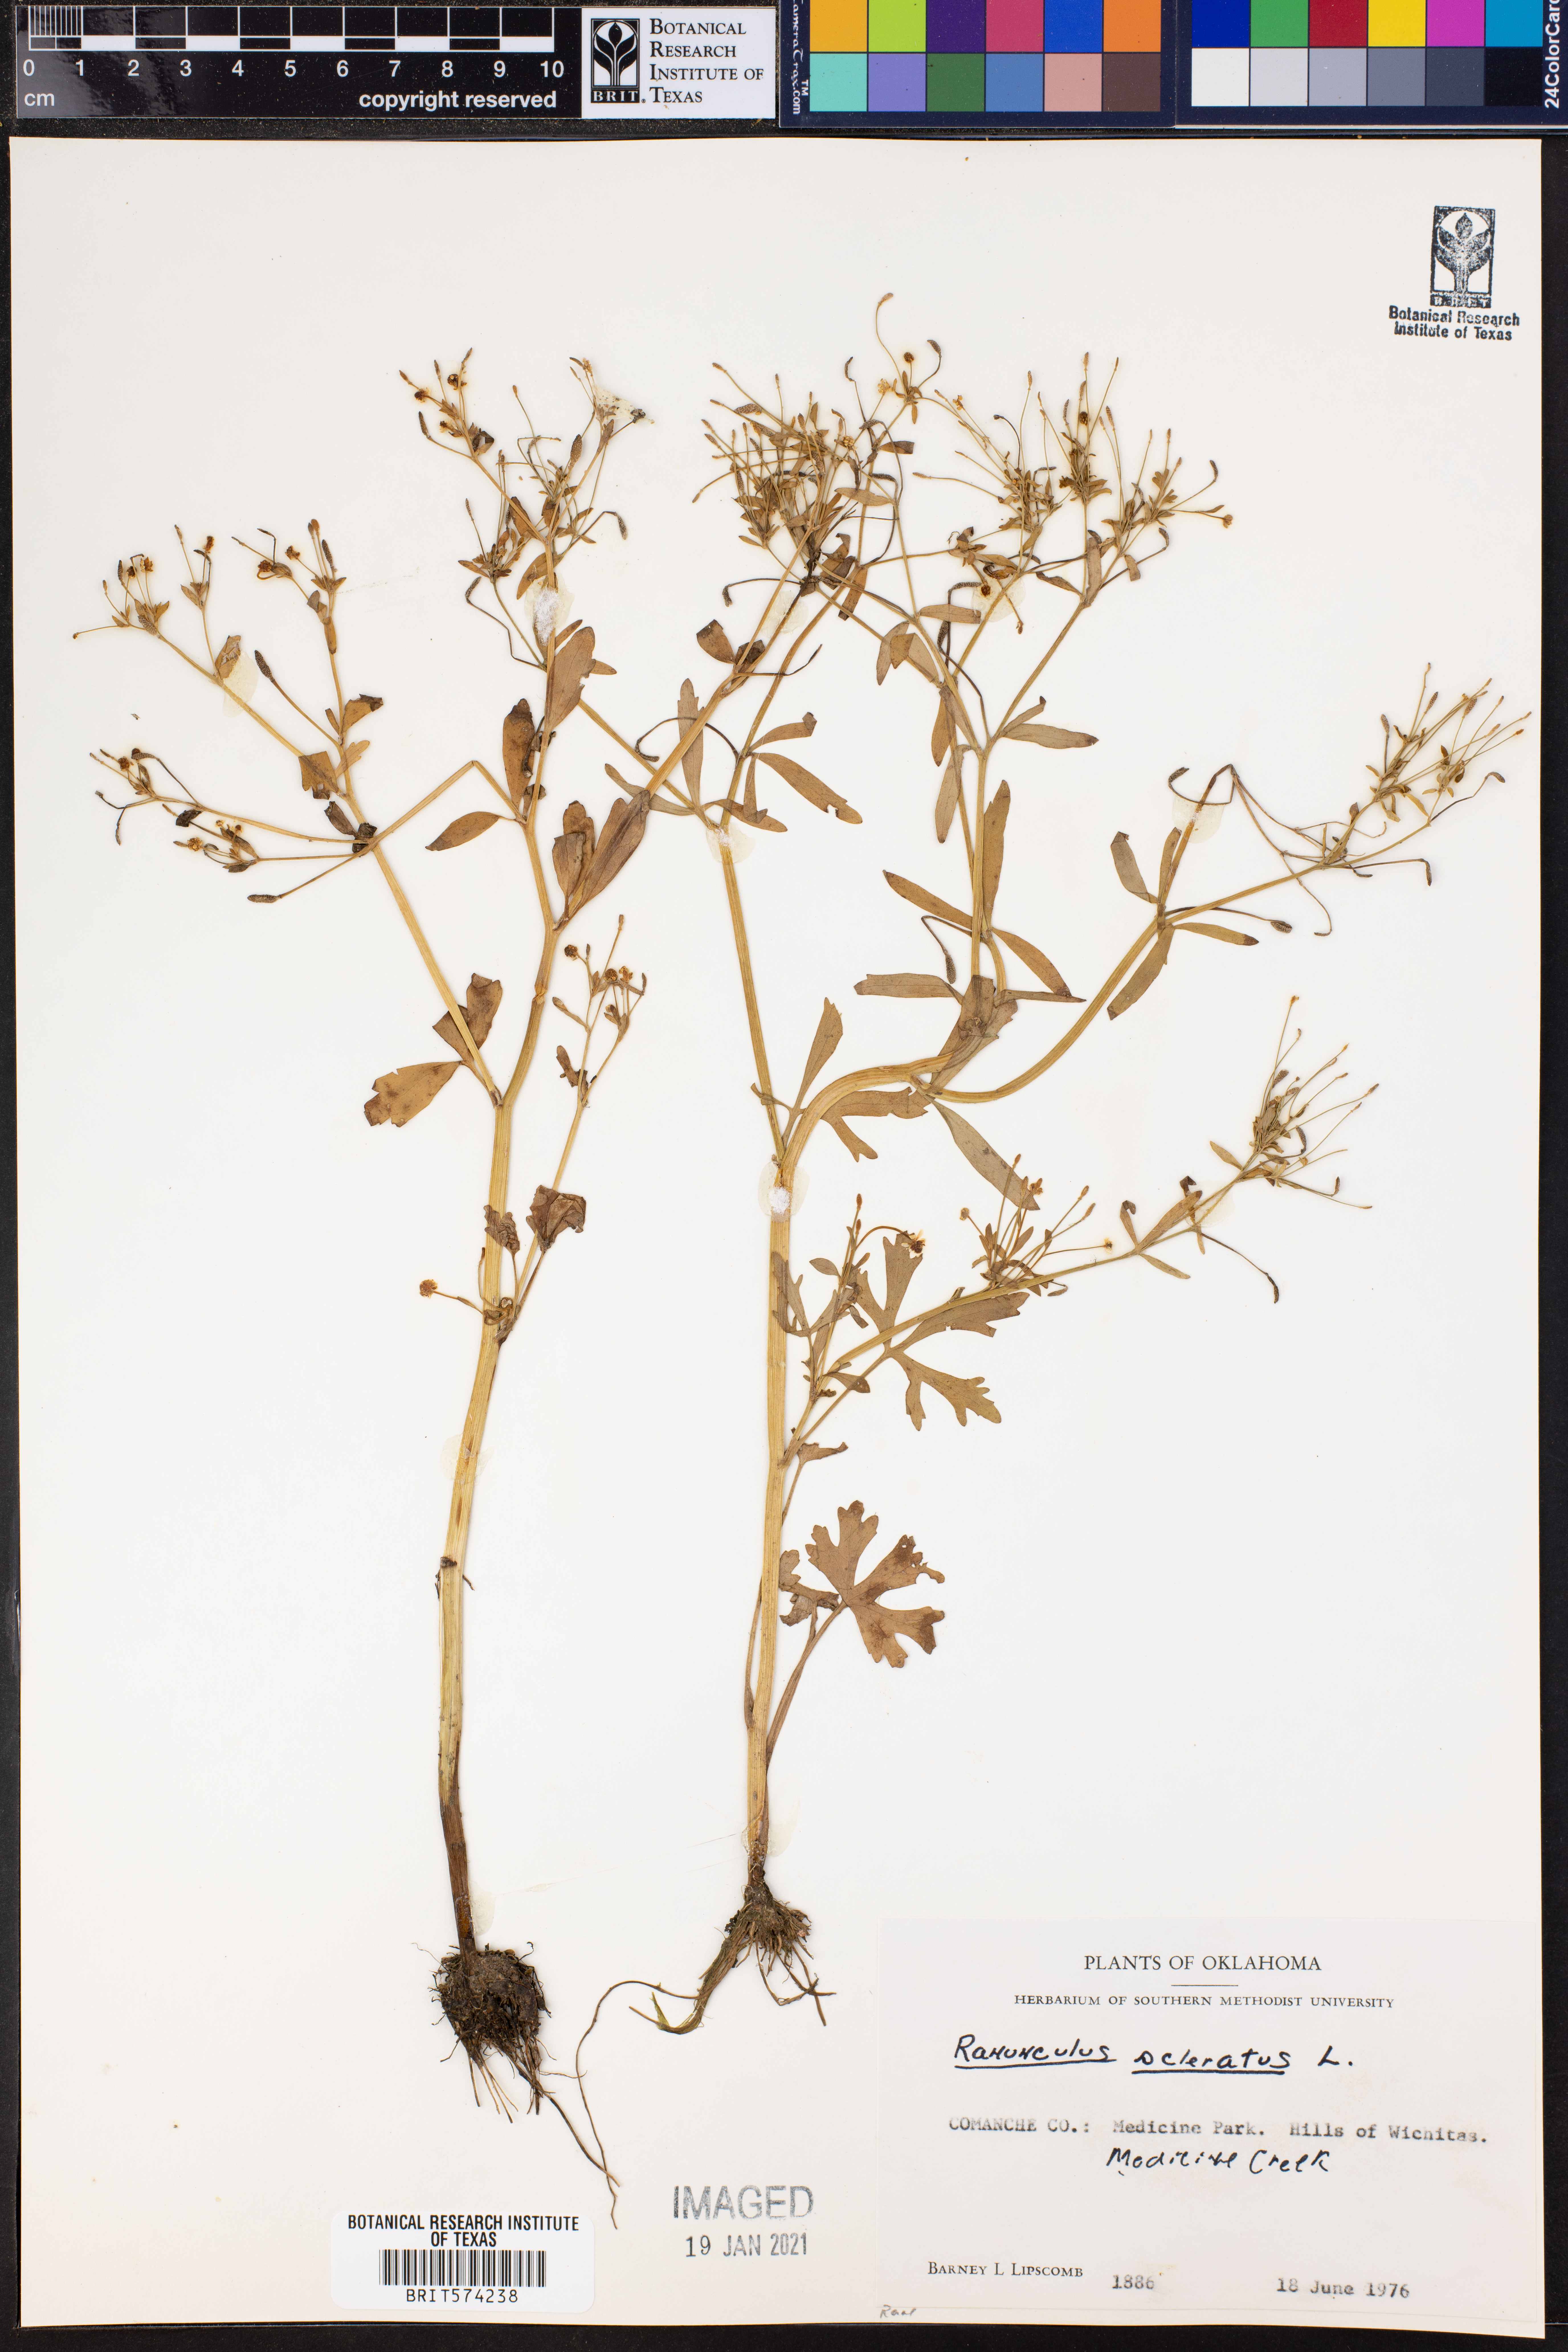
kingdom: Plantae
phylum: Tracheophyta
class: Magnoliopsida
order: Ranunculales
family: Ranunculaceae
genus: Ranunculus
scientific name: Ranunculus sceleratus
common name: Celery-leaved buttercup
